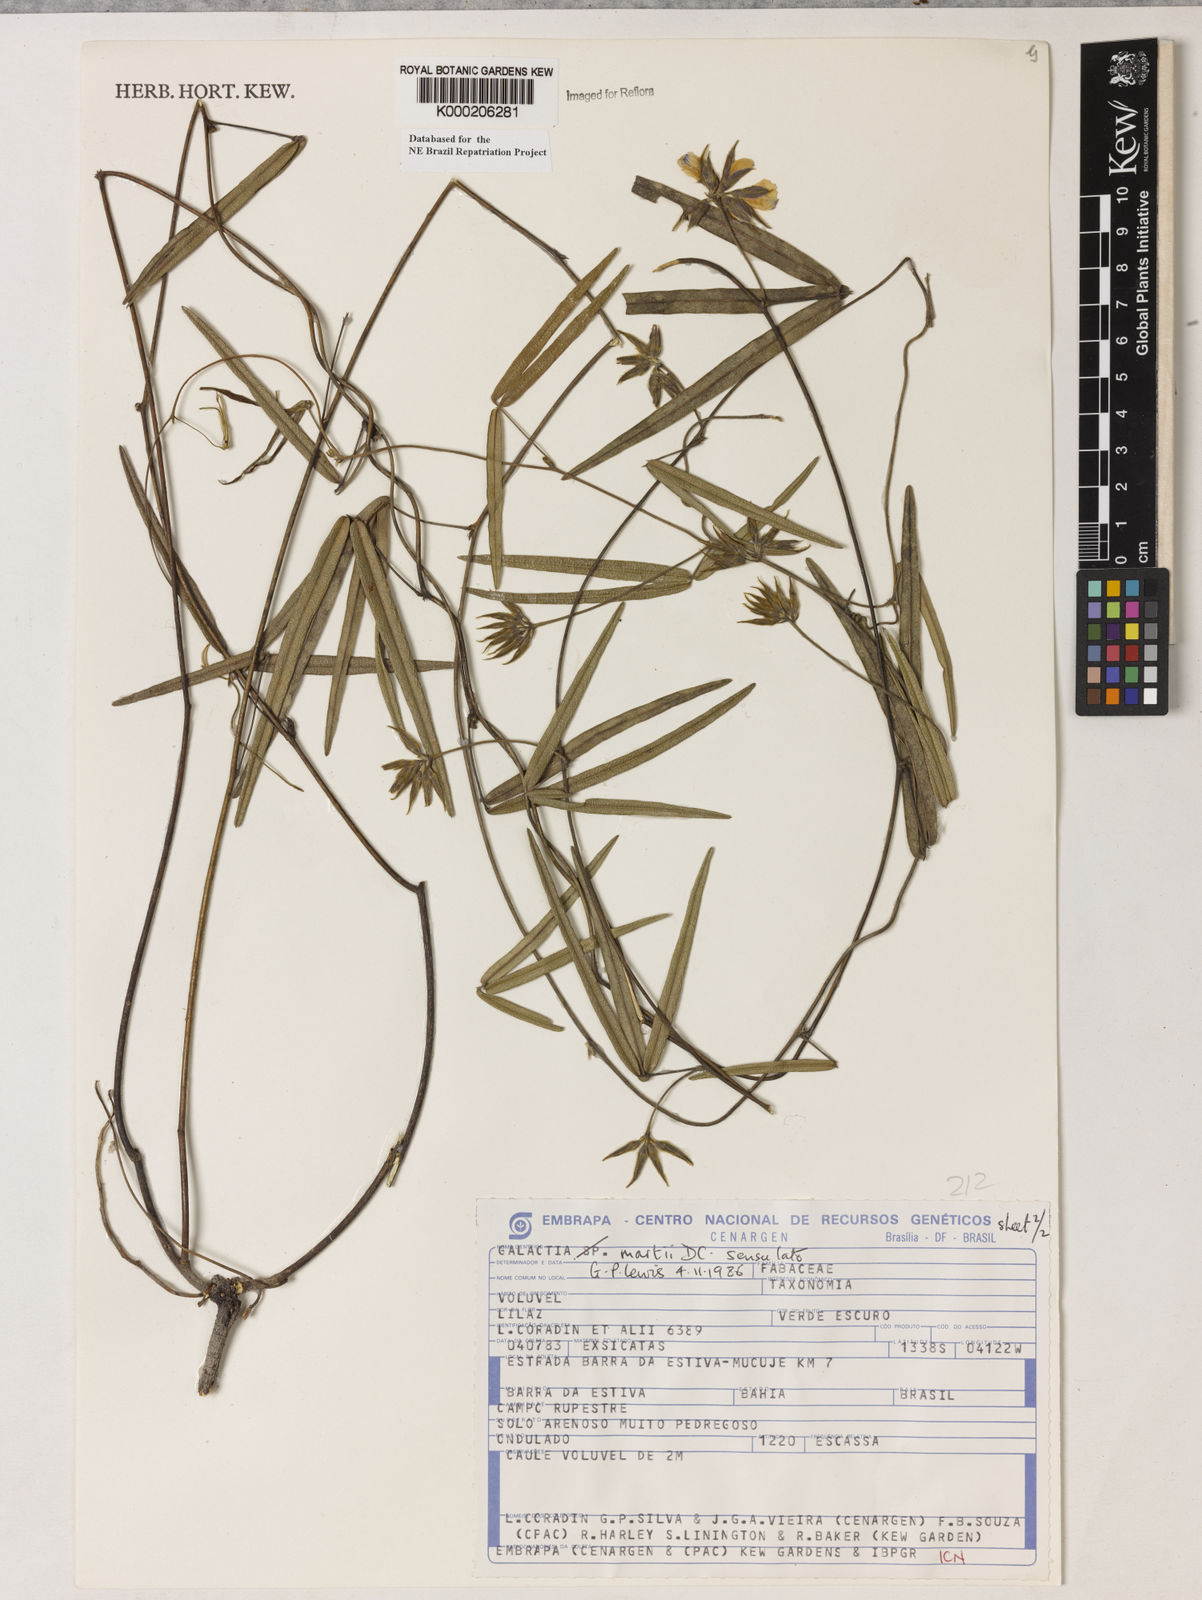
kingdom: Plantae
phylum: Tracheophyta
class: Magnoliopsida
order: Fabales
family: Fabaceae
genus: Betencourtia
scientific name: Betencourtia martii
